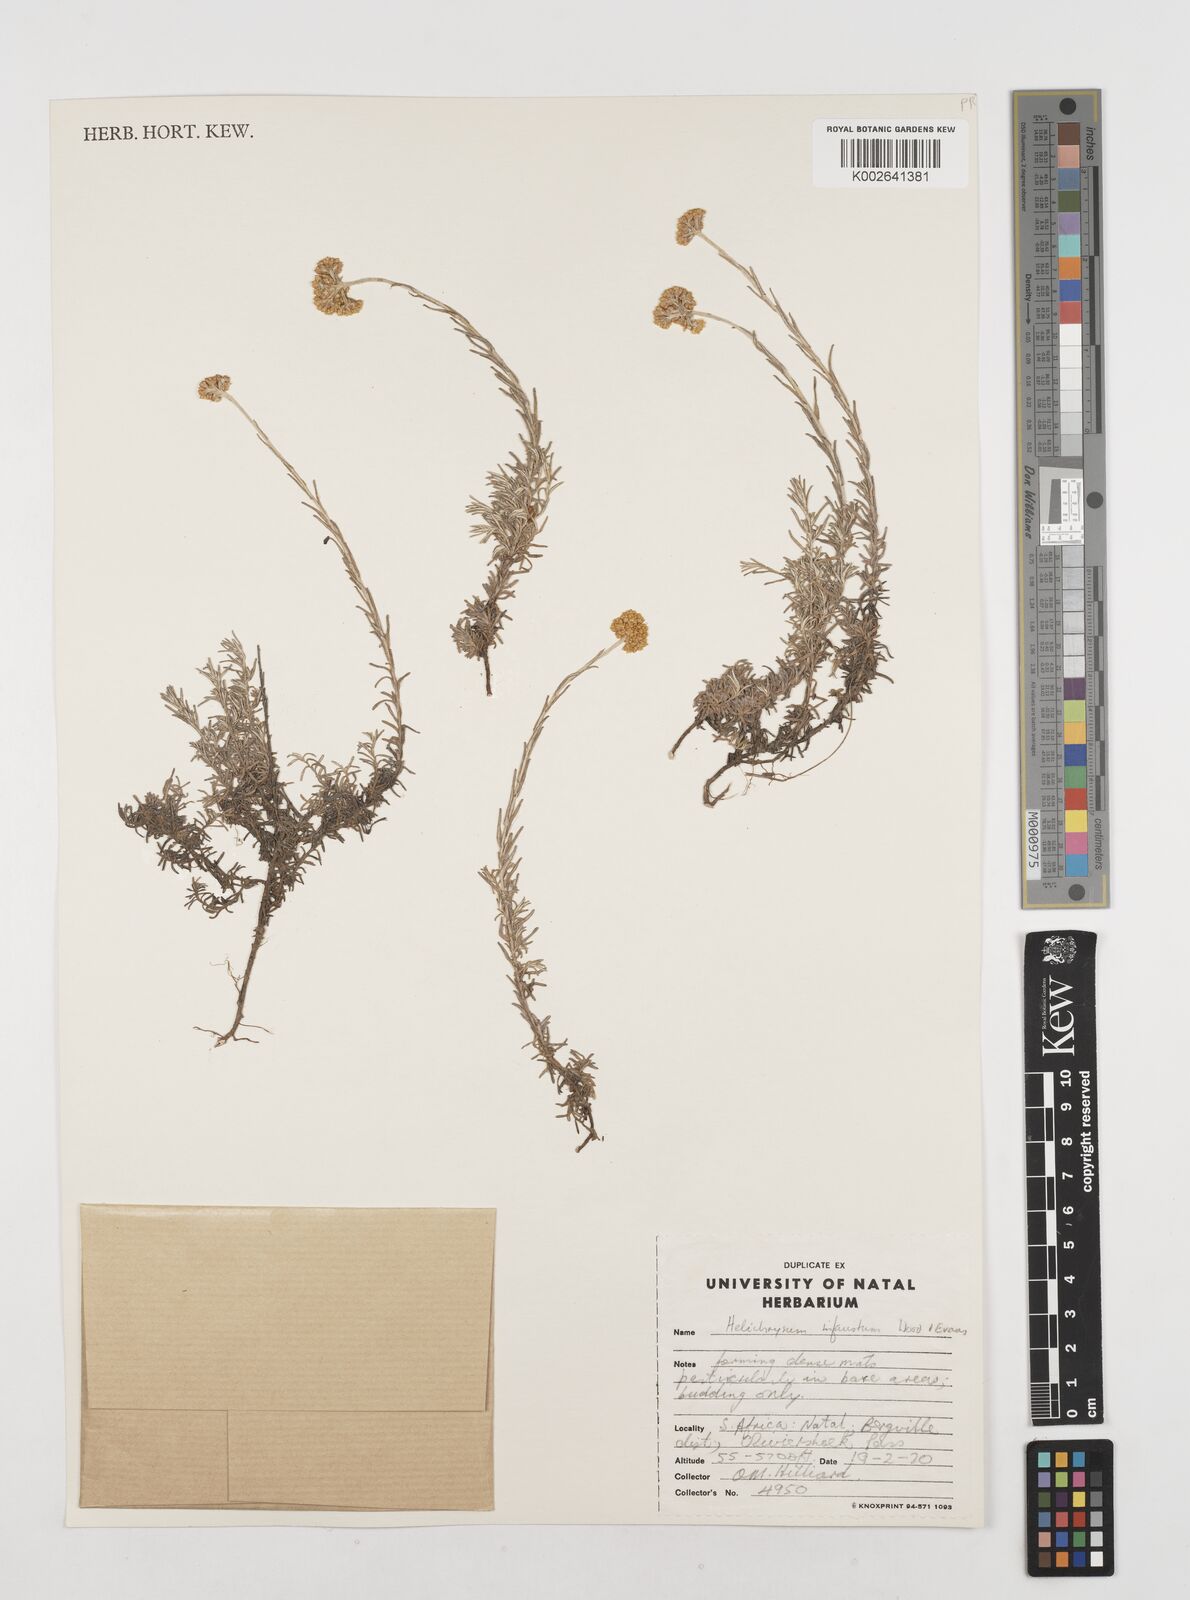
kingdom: Plantae
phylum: Tracheophyta
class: Magnoliopsida
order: Asterales
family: Asteraceae
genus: Calomeria
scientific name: Calomeria infausta
